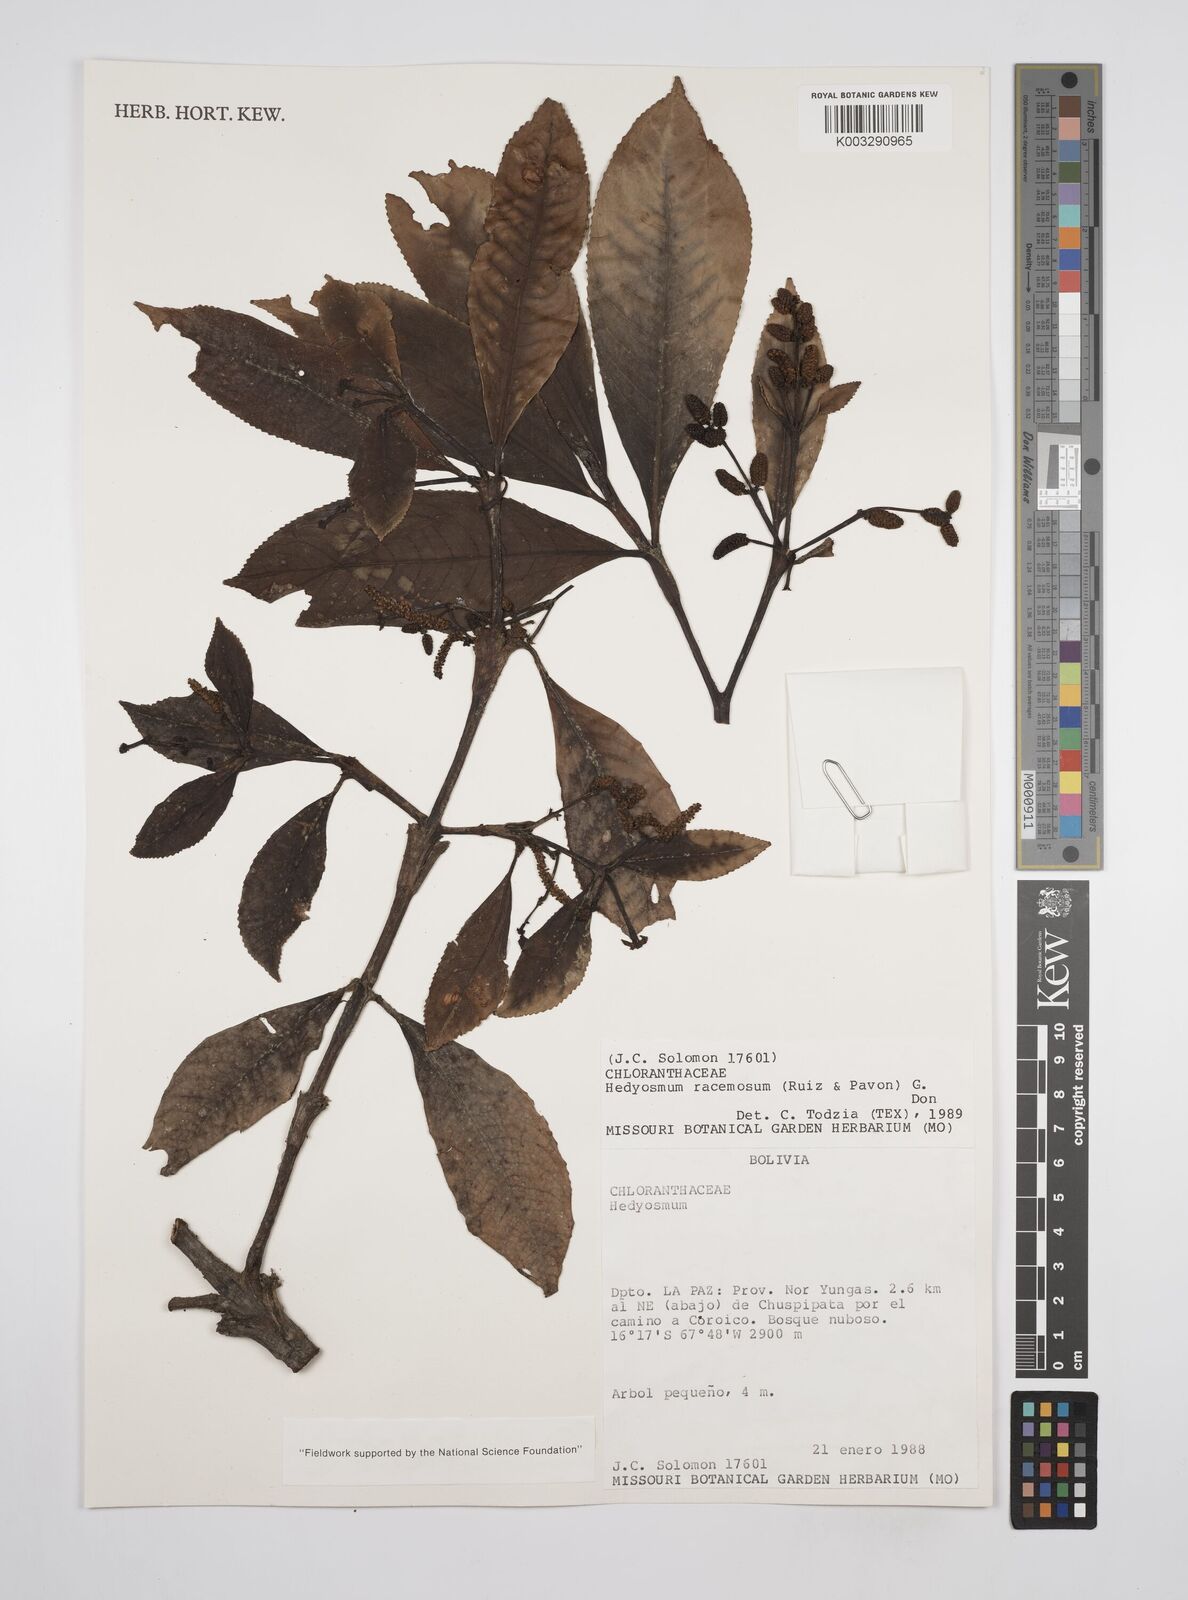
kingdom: Plantae
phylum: Tracheophyta
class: Magnoliopsida
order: Chloranthales
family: Chloranthaceae
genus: Hedyosmum
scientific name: Hedyosmum racemosum
